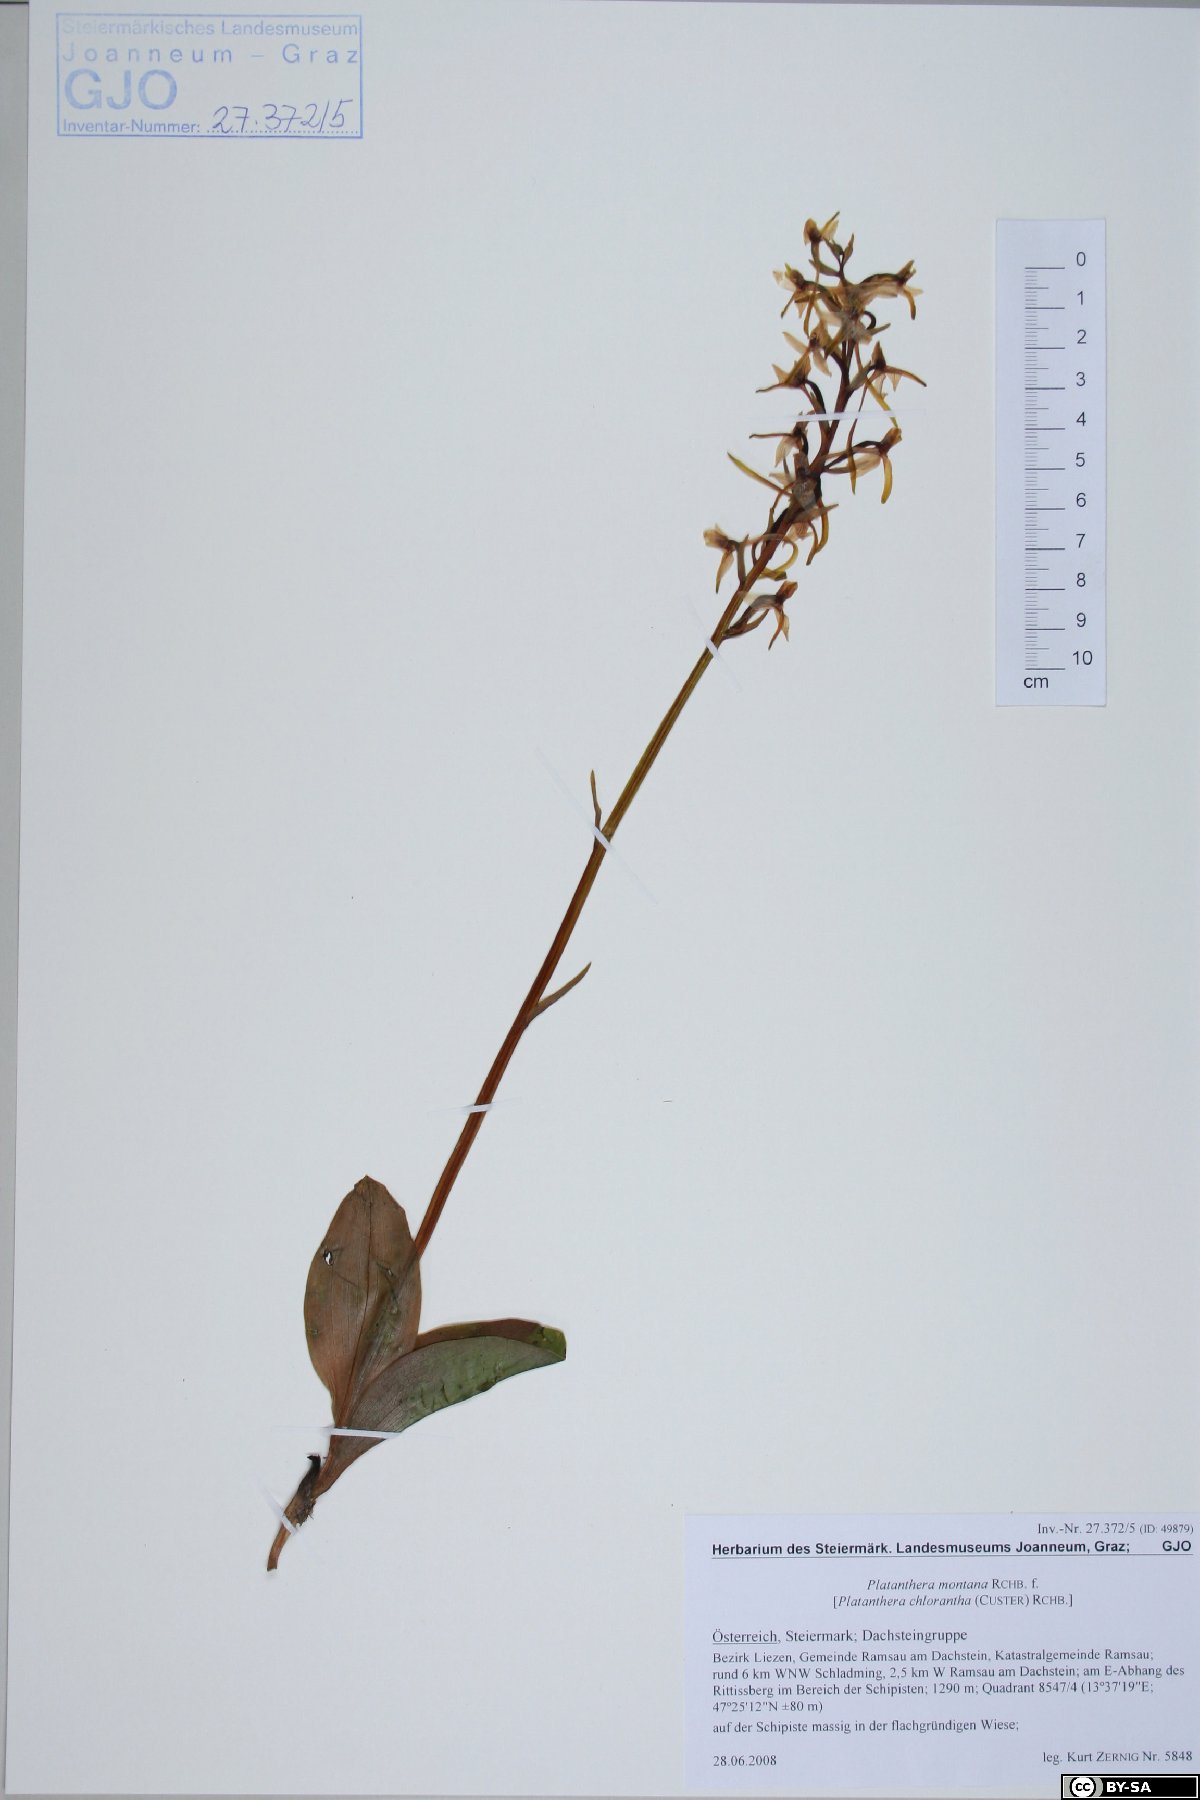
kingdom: Plantae
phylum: Tracheophyta
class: Liliopsida
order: Asparagales
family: Orchidaceae
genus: Platanthera
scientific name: Platanthera chlorantha
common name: Greater butterfly-orchid
